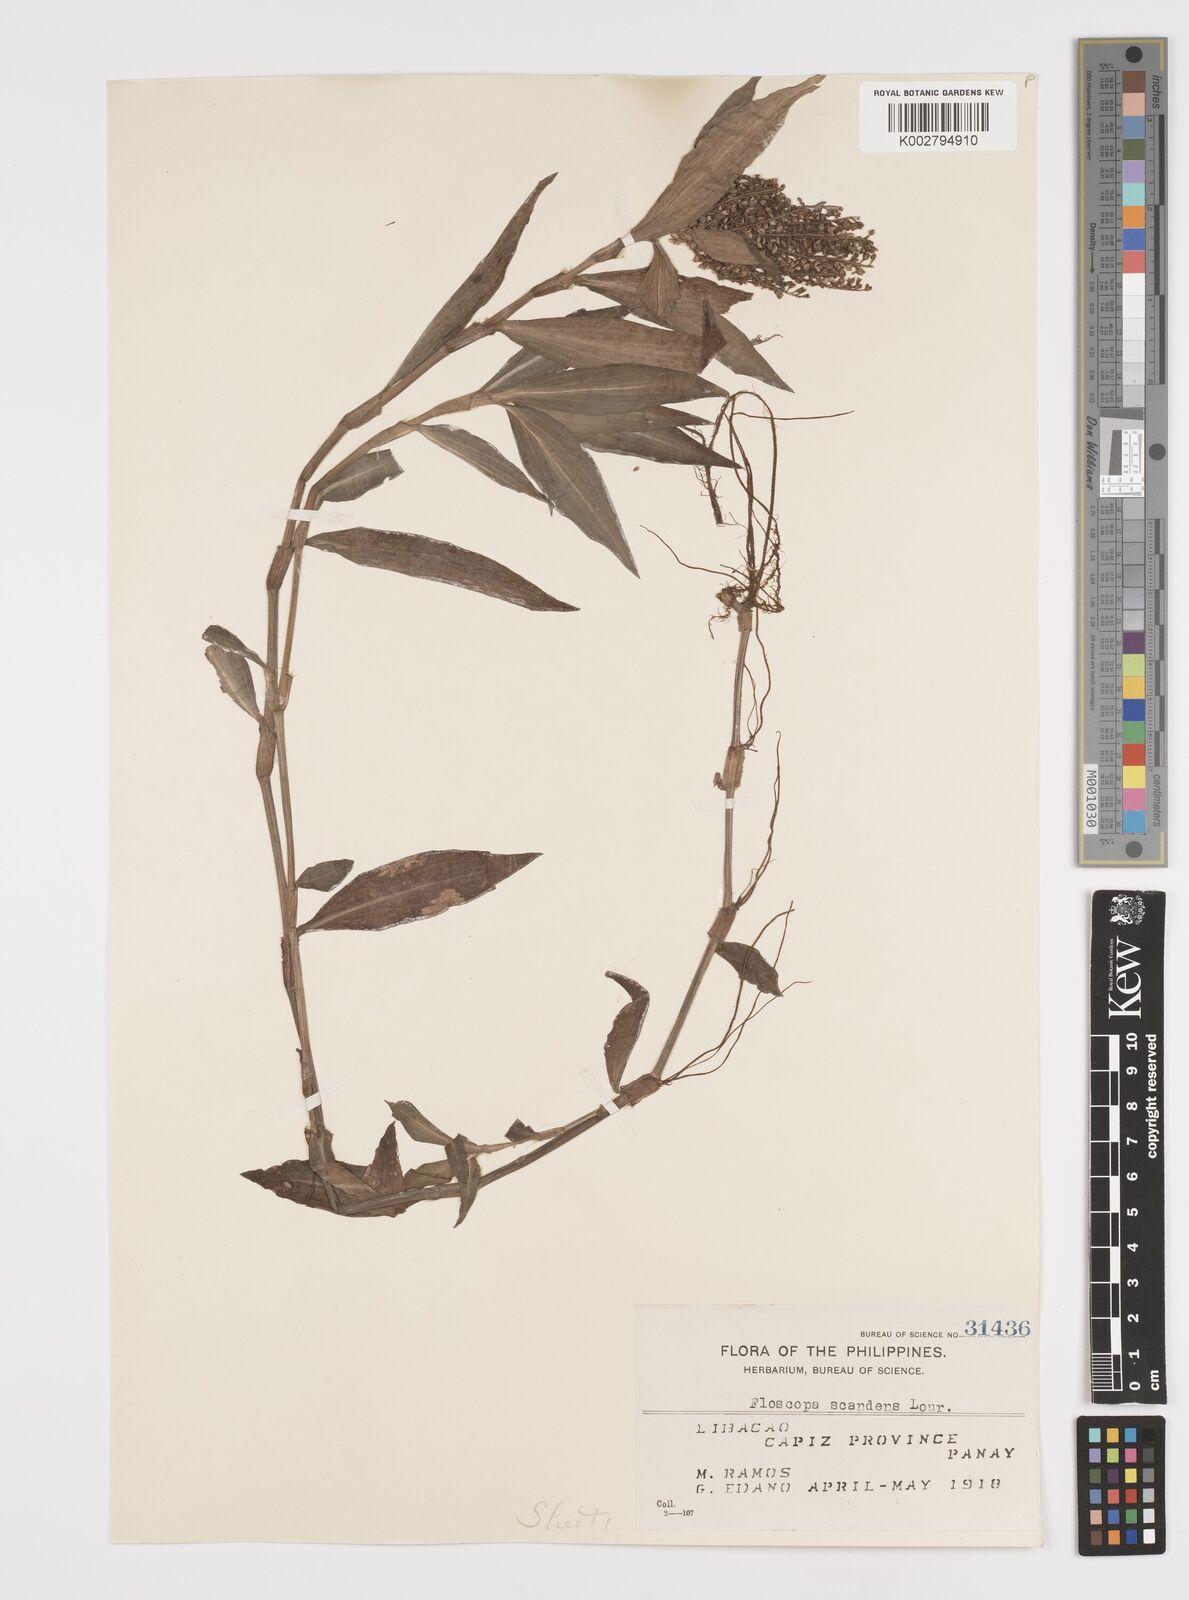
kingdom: Plantae
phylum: Tracheophyta
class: Liliopsida
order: Commelinales
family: Commelinaceae
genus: Floscopa
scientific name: Floscopa scandens
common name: Climbing flower cup
